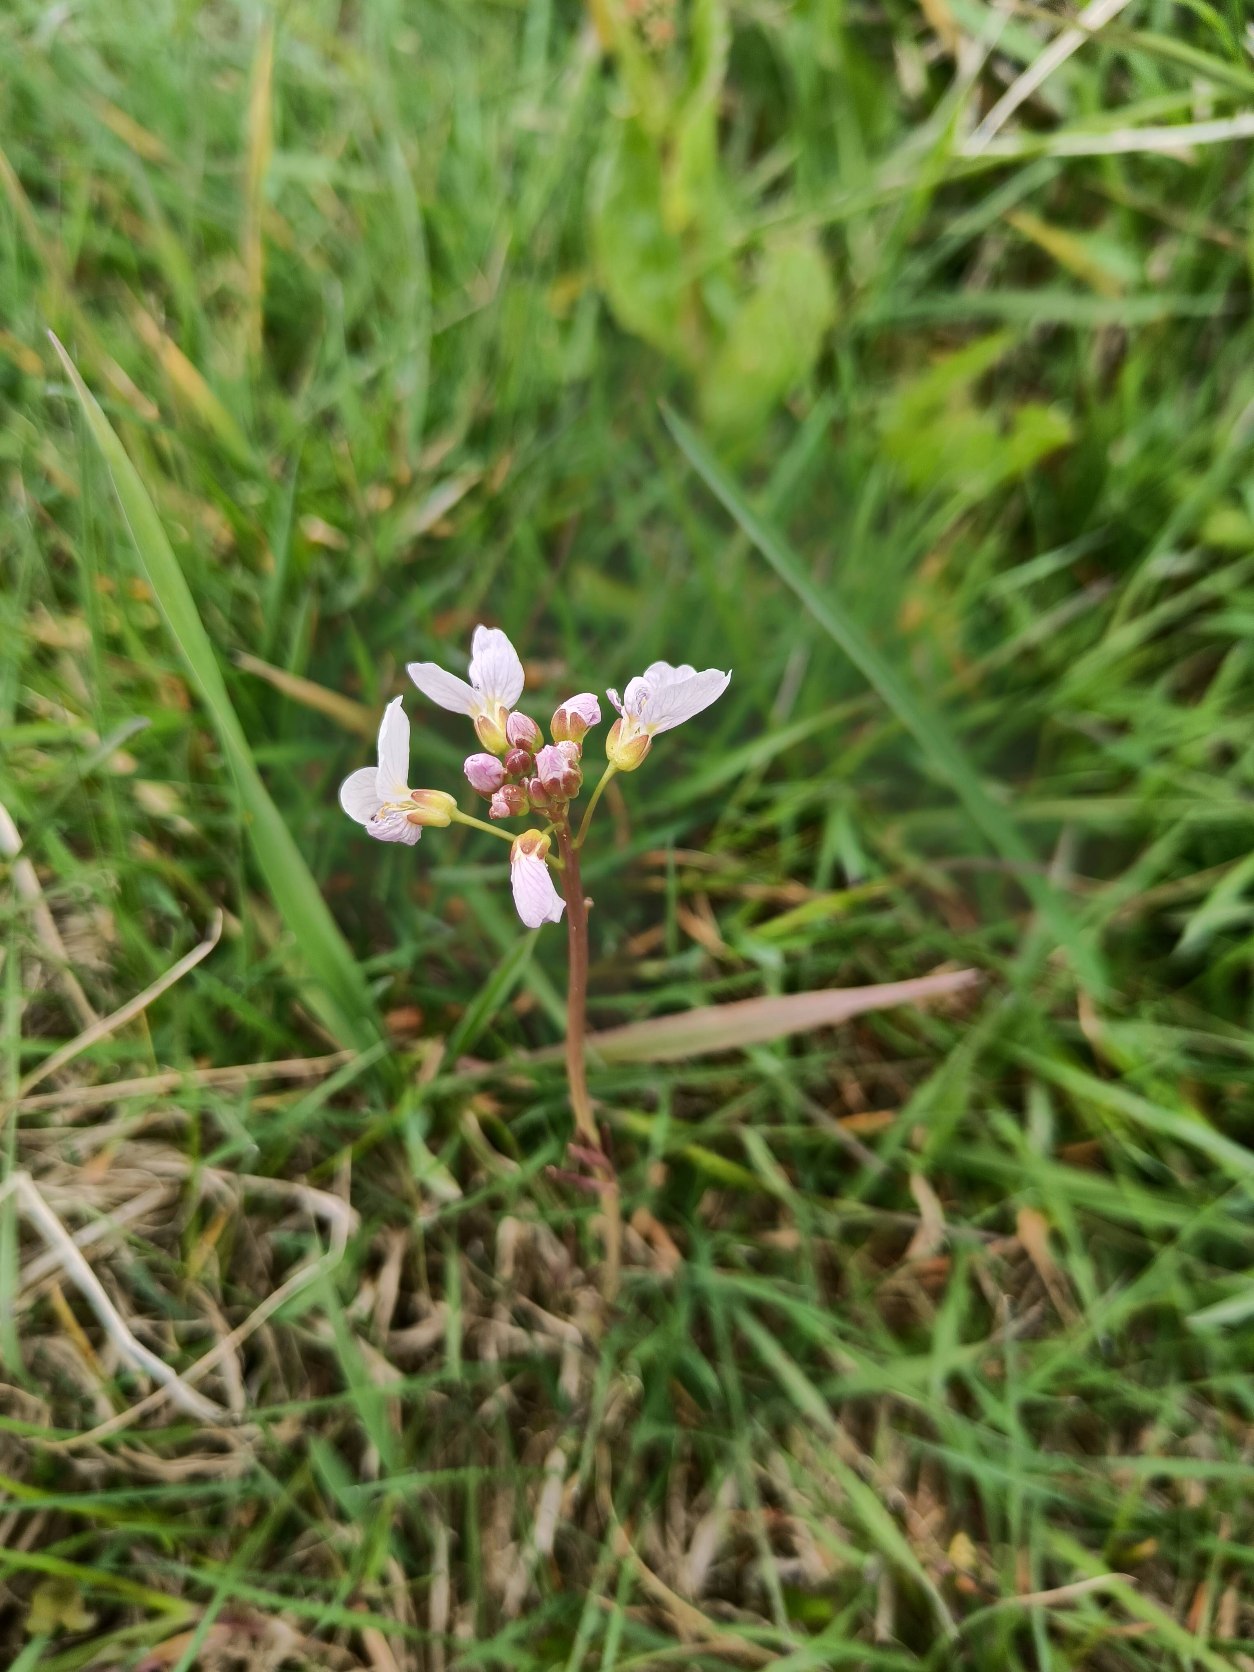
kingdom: Plantae
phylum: Tracheophyta
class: Magnoliopsida
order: Brassicales
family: Brassicaceae
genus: Cardamine
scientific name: Cardamine pratensis
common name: Engkarse
